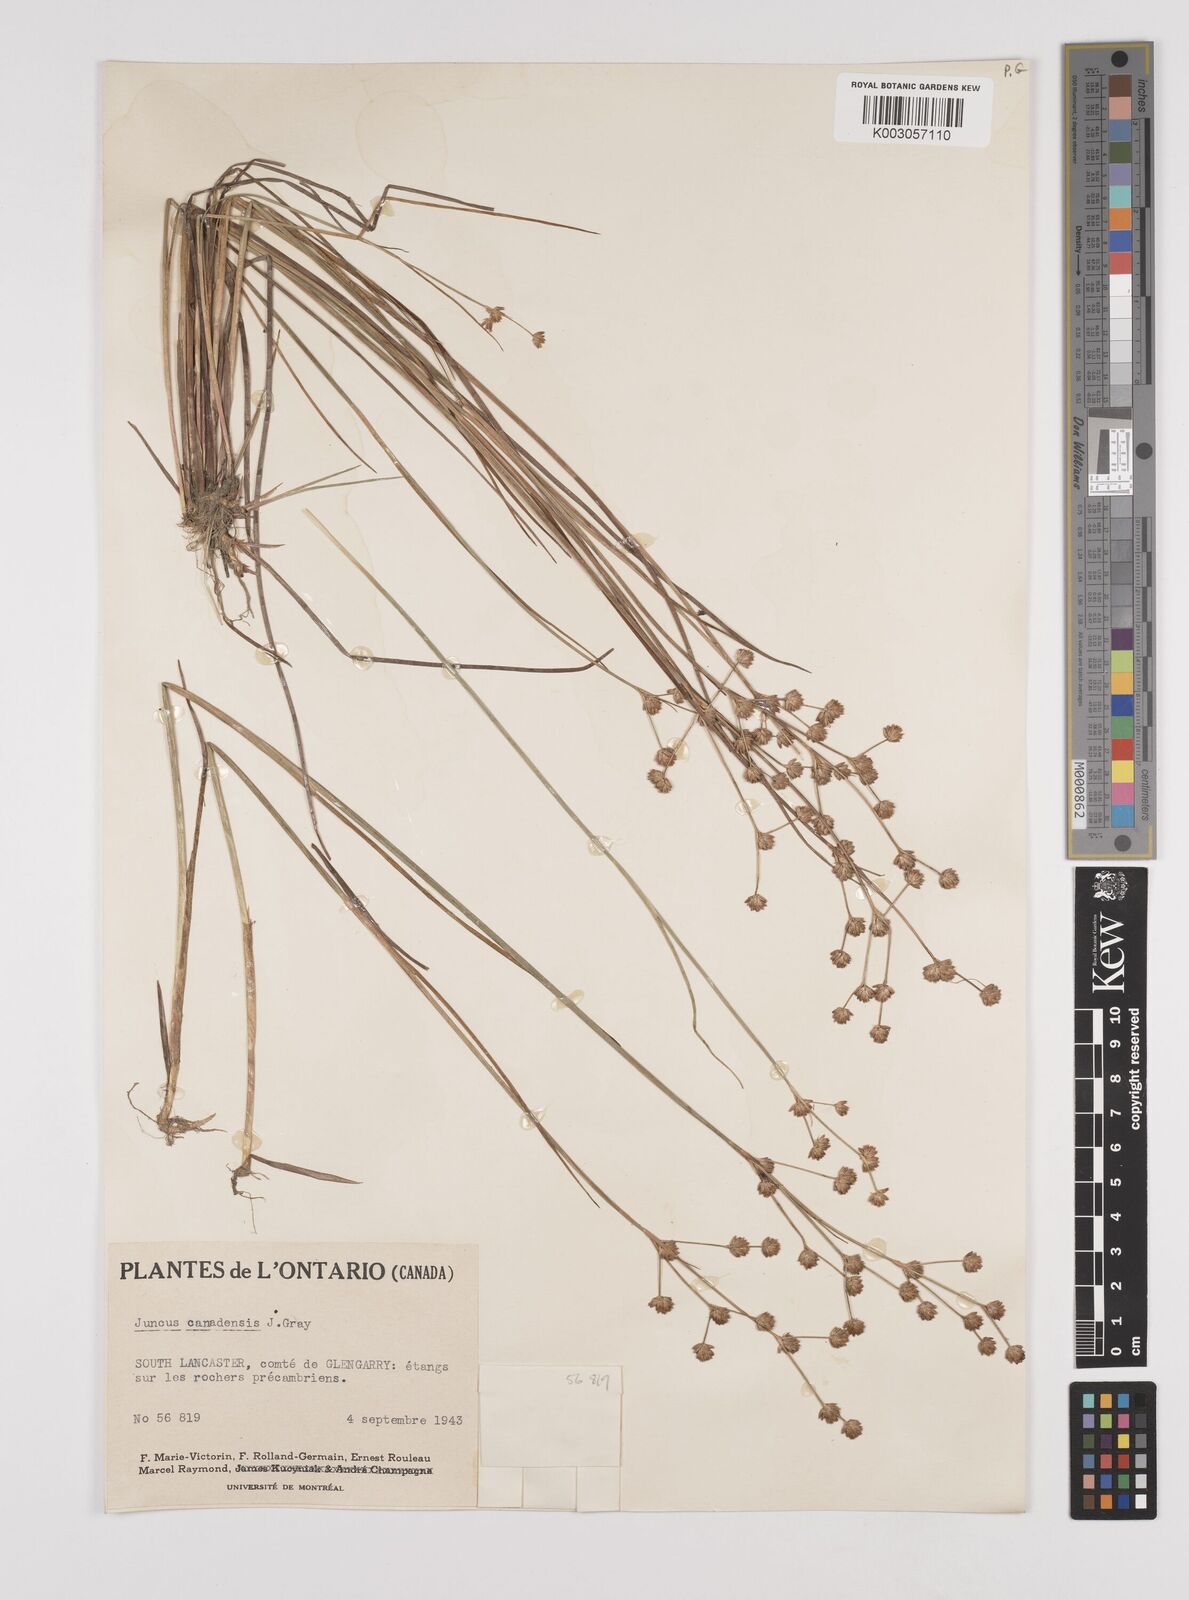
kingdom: Plantae
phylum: Tracheophyta
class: Liliopsida
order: Poales
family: Juncaceae
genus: Juncus
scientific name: Juncus canadensis
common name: Canada rush
